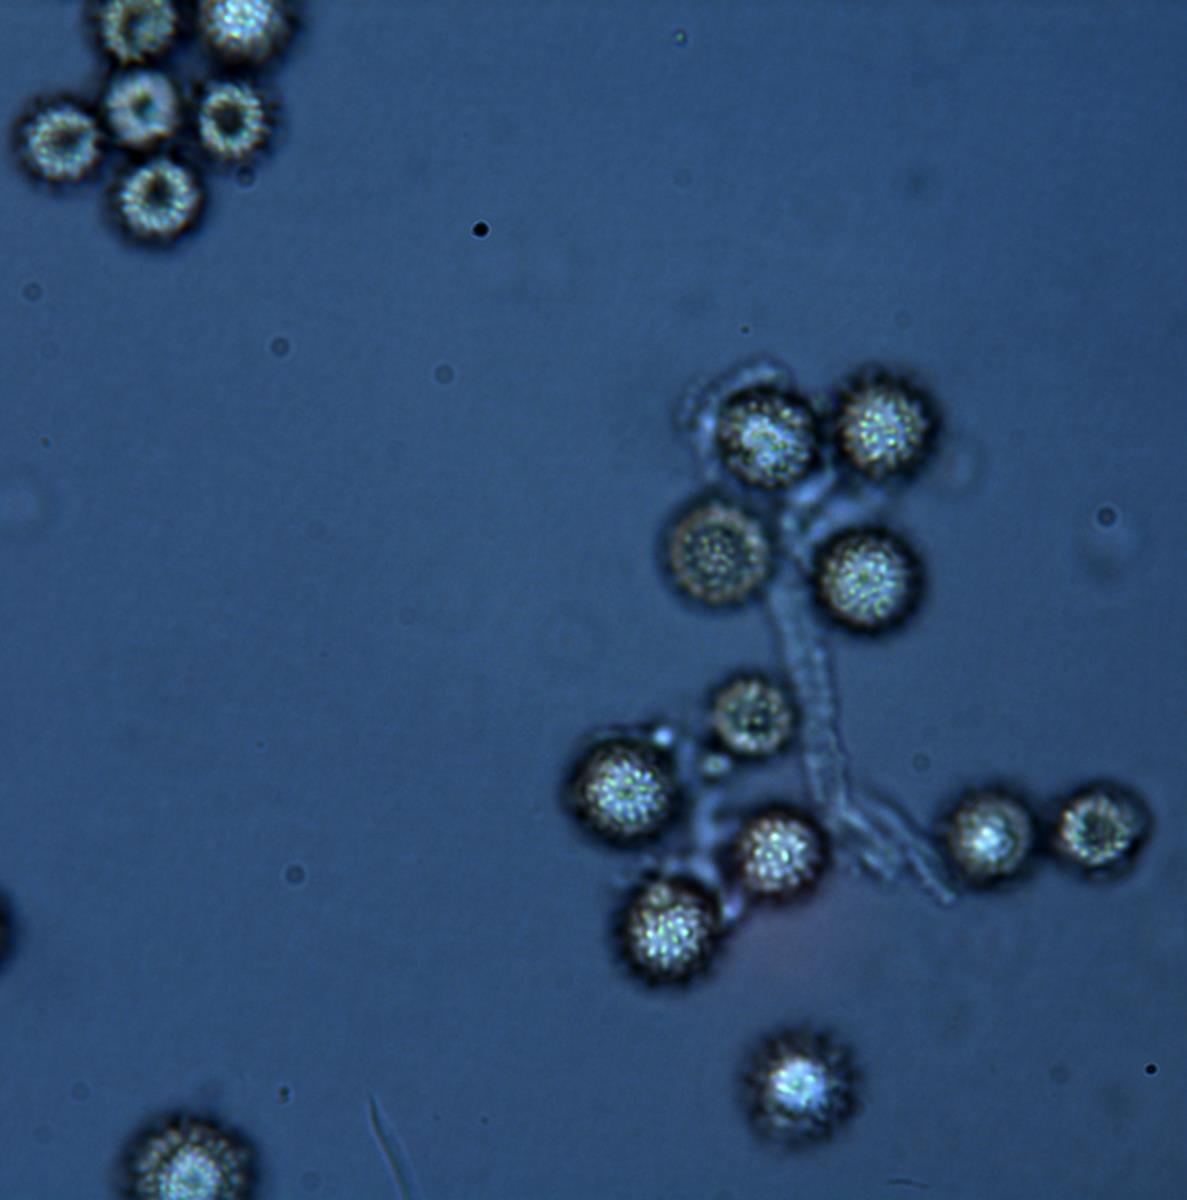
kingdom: Fungi
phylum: Basidiomycota
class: Agaricomycetes
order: Boletales
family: Sclerodermataceae
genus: Pisolithus
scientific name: Pisolithus thermaeus
